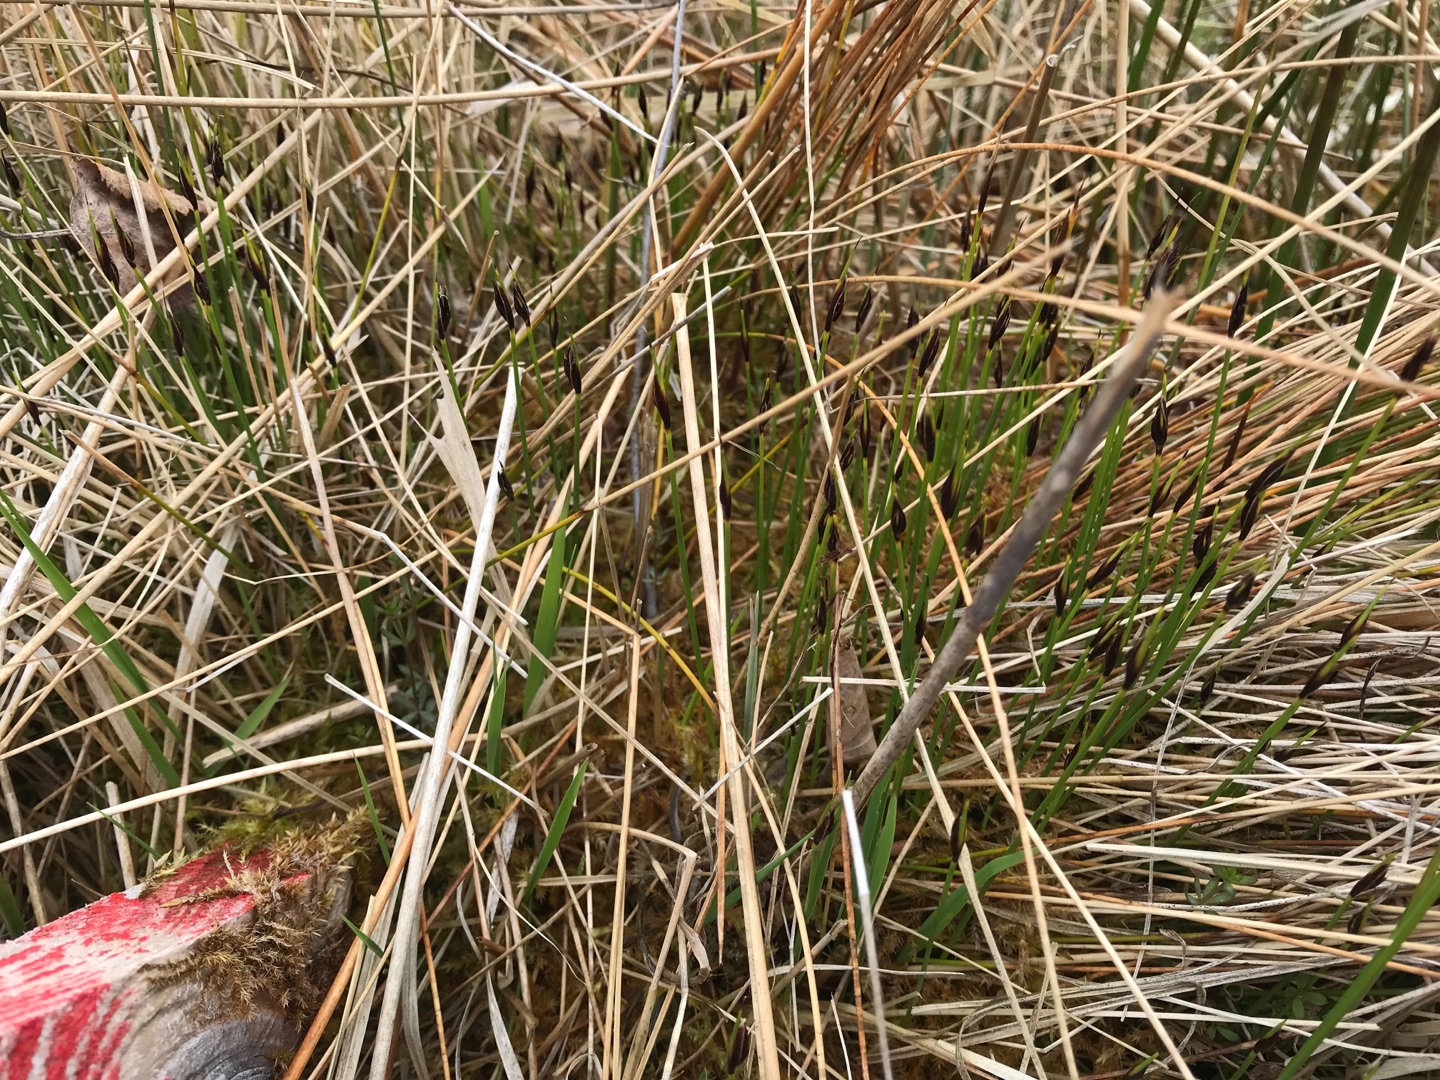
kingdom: Plantae
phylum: Tracheophyta
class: Liliopsida
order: Poales
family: Cyperaceae
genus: Schoenus
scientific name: Schoenus ferrugineus
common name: Rust-skæne
